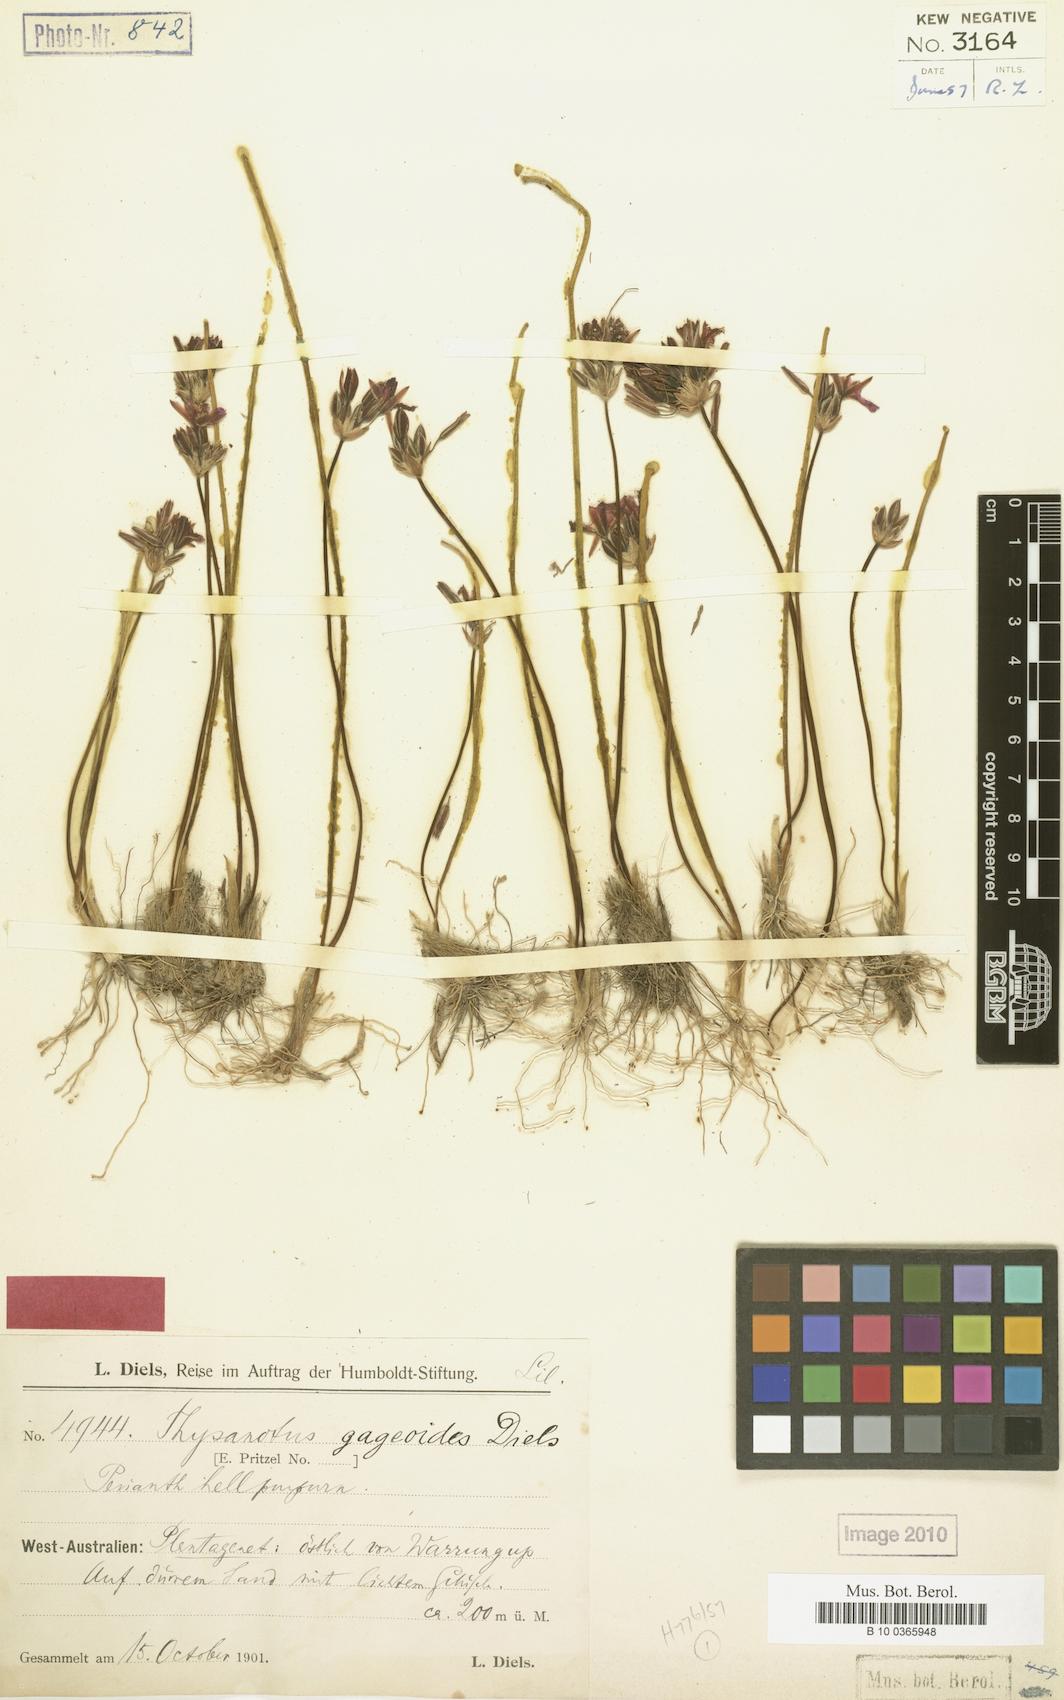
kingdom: Plantae
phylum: Tracheophyta
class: Liliopsida
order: Asparagales
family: Asparagaceae
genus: Thysanotus
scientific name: Thysanotus gageoides
